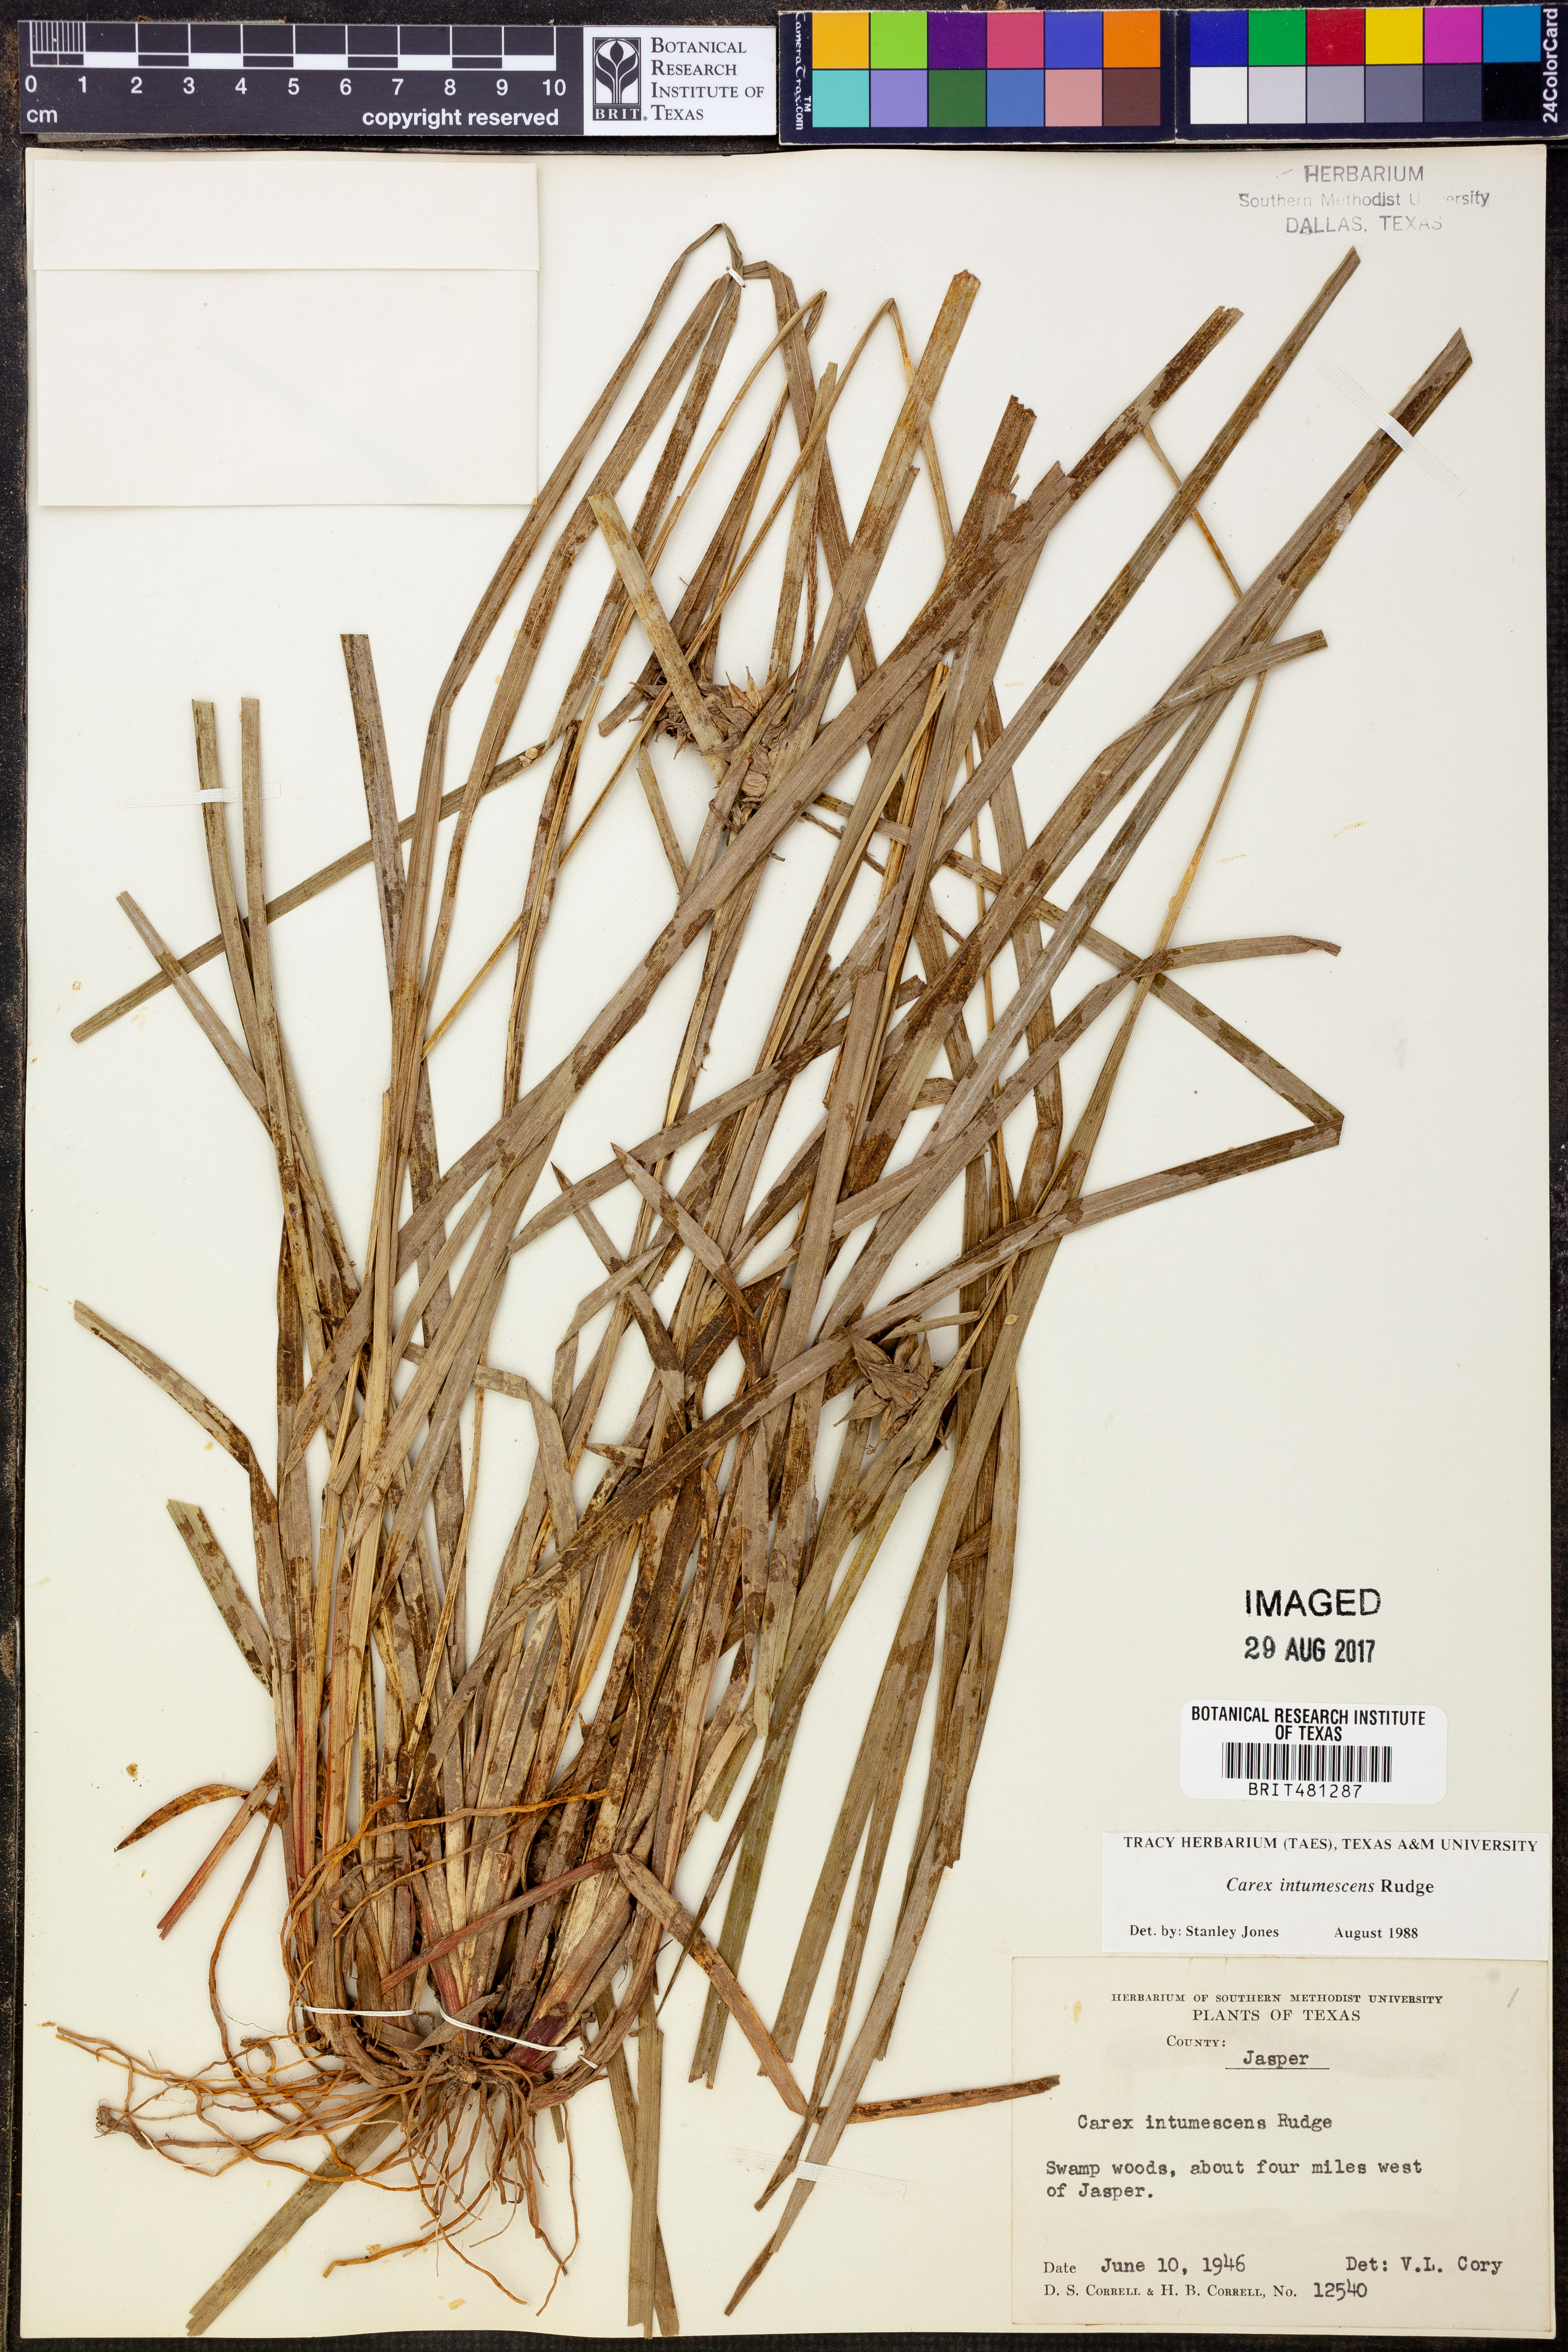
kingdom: Plantae
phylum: Tracheophyta
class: Liliopsida
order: Poales
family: Cyperaceae
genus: Carex
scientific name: Carex intumescens
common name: Greater bladder sedge
